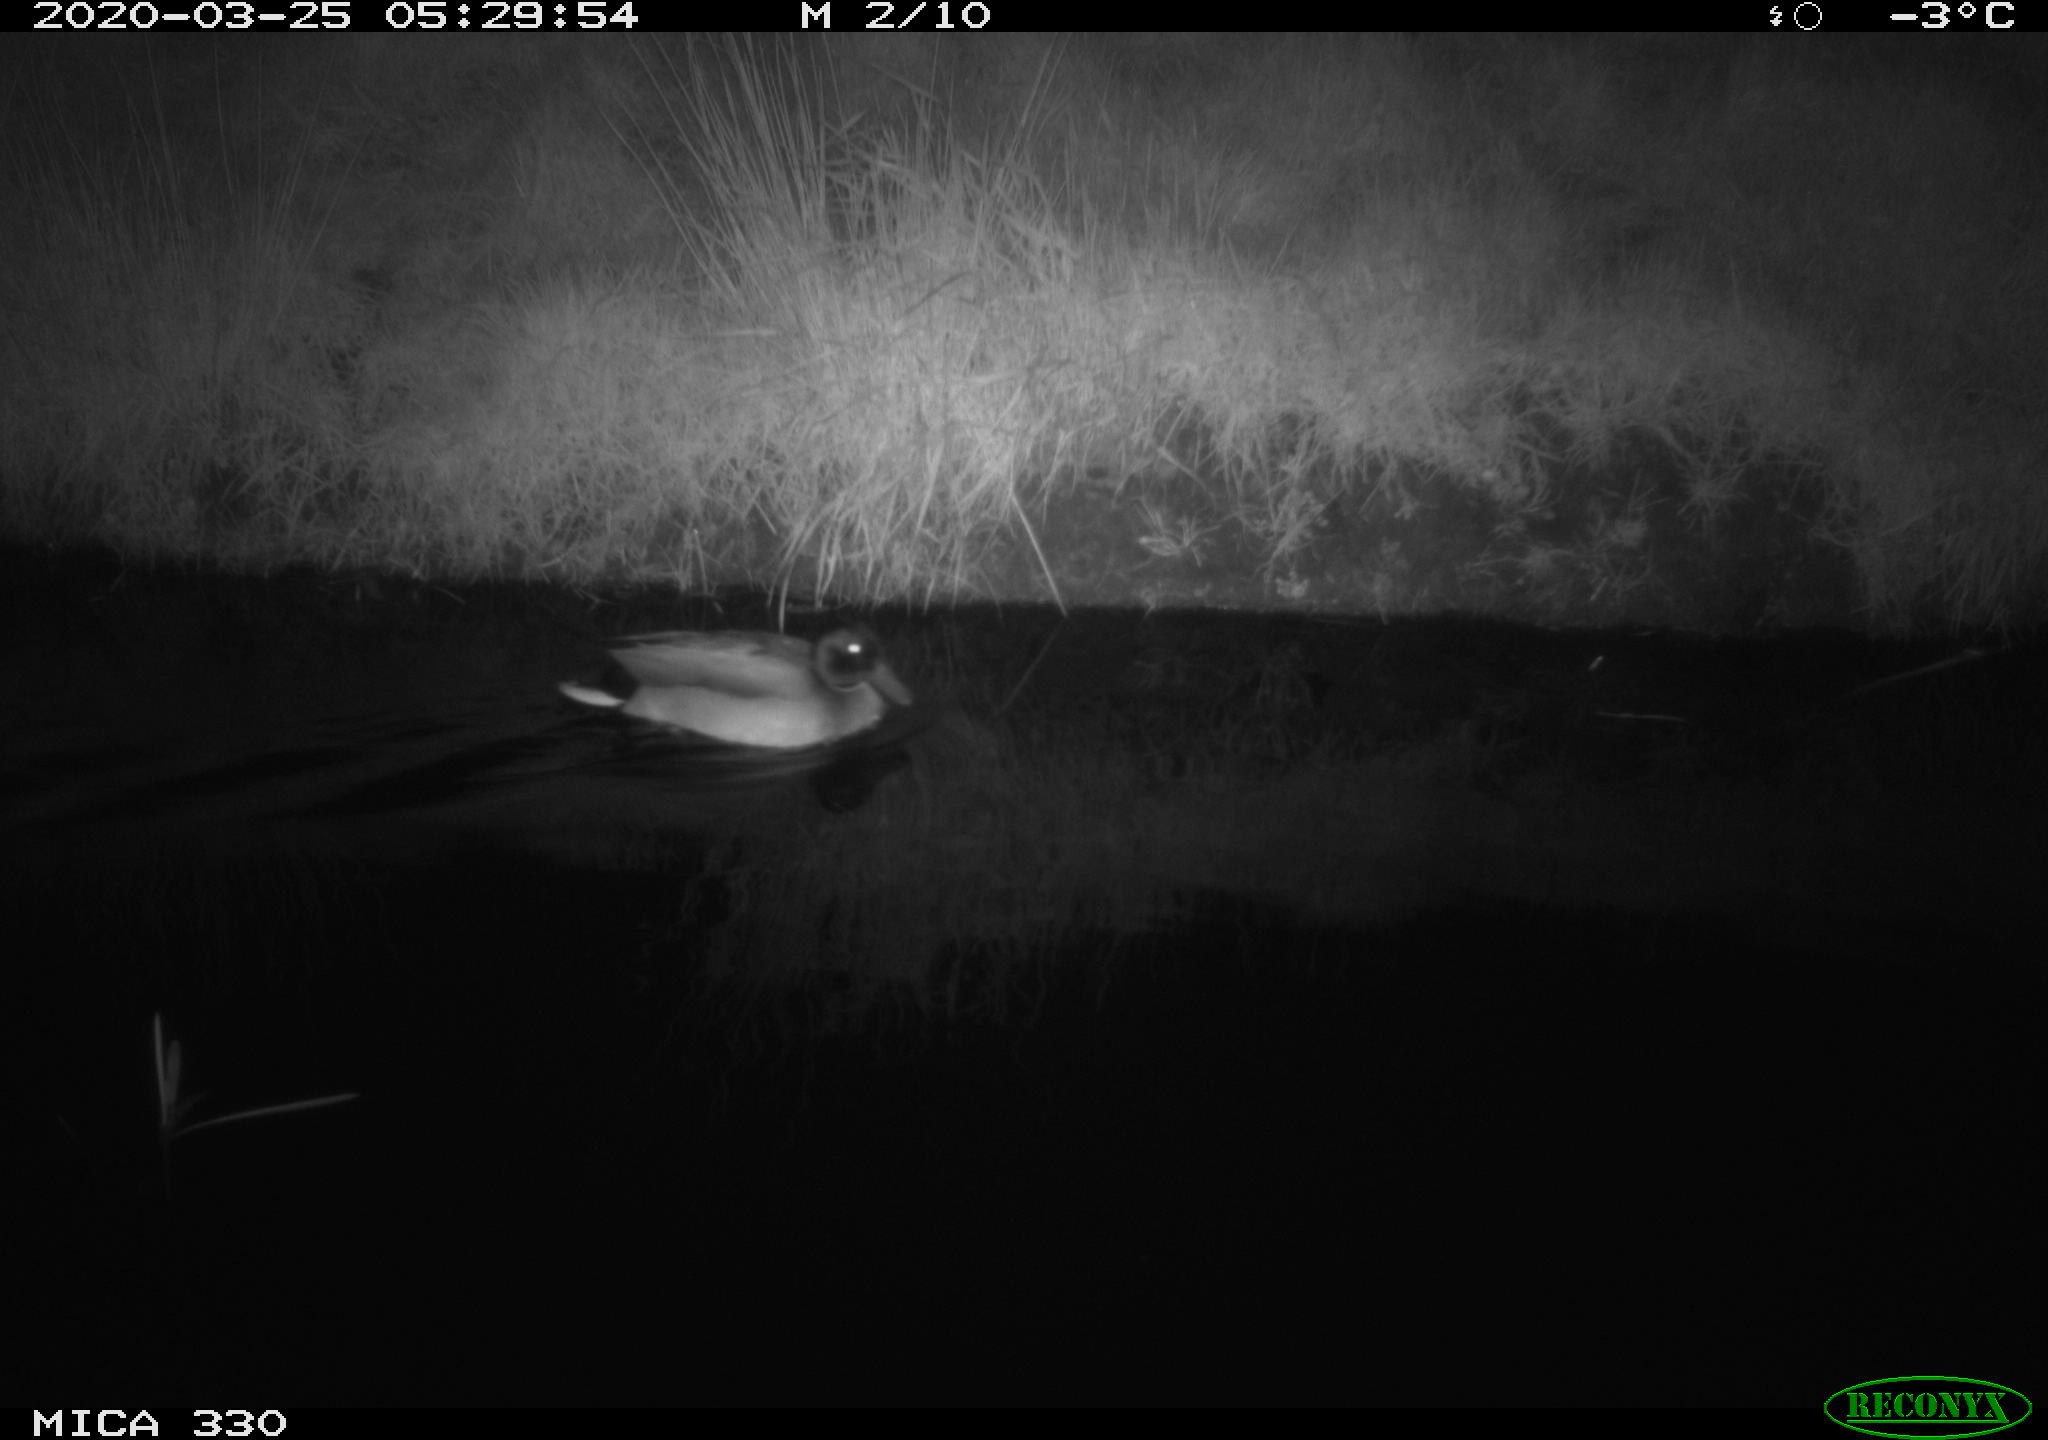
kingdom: Animalia
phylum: Chordata
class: Aves
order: Anseriformes
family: Anatidae
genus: Anas
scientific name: Anas platyrhynchos
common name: Mallard
